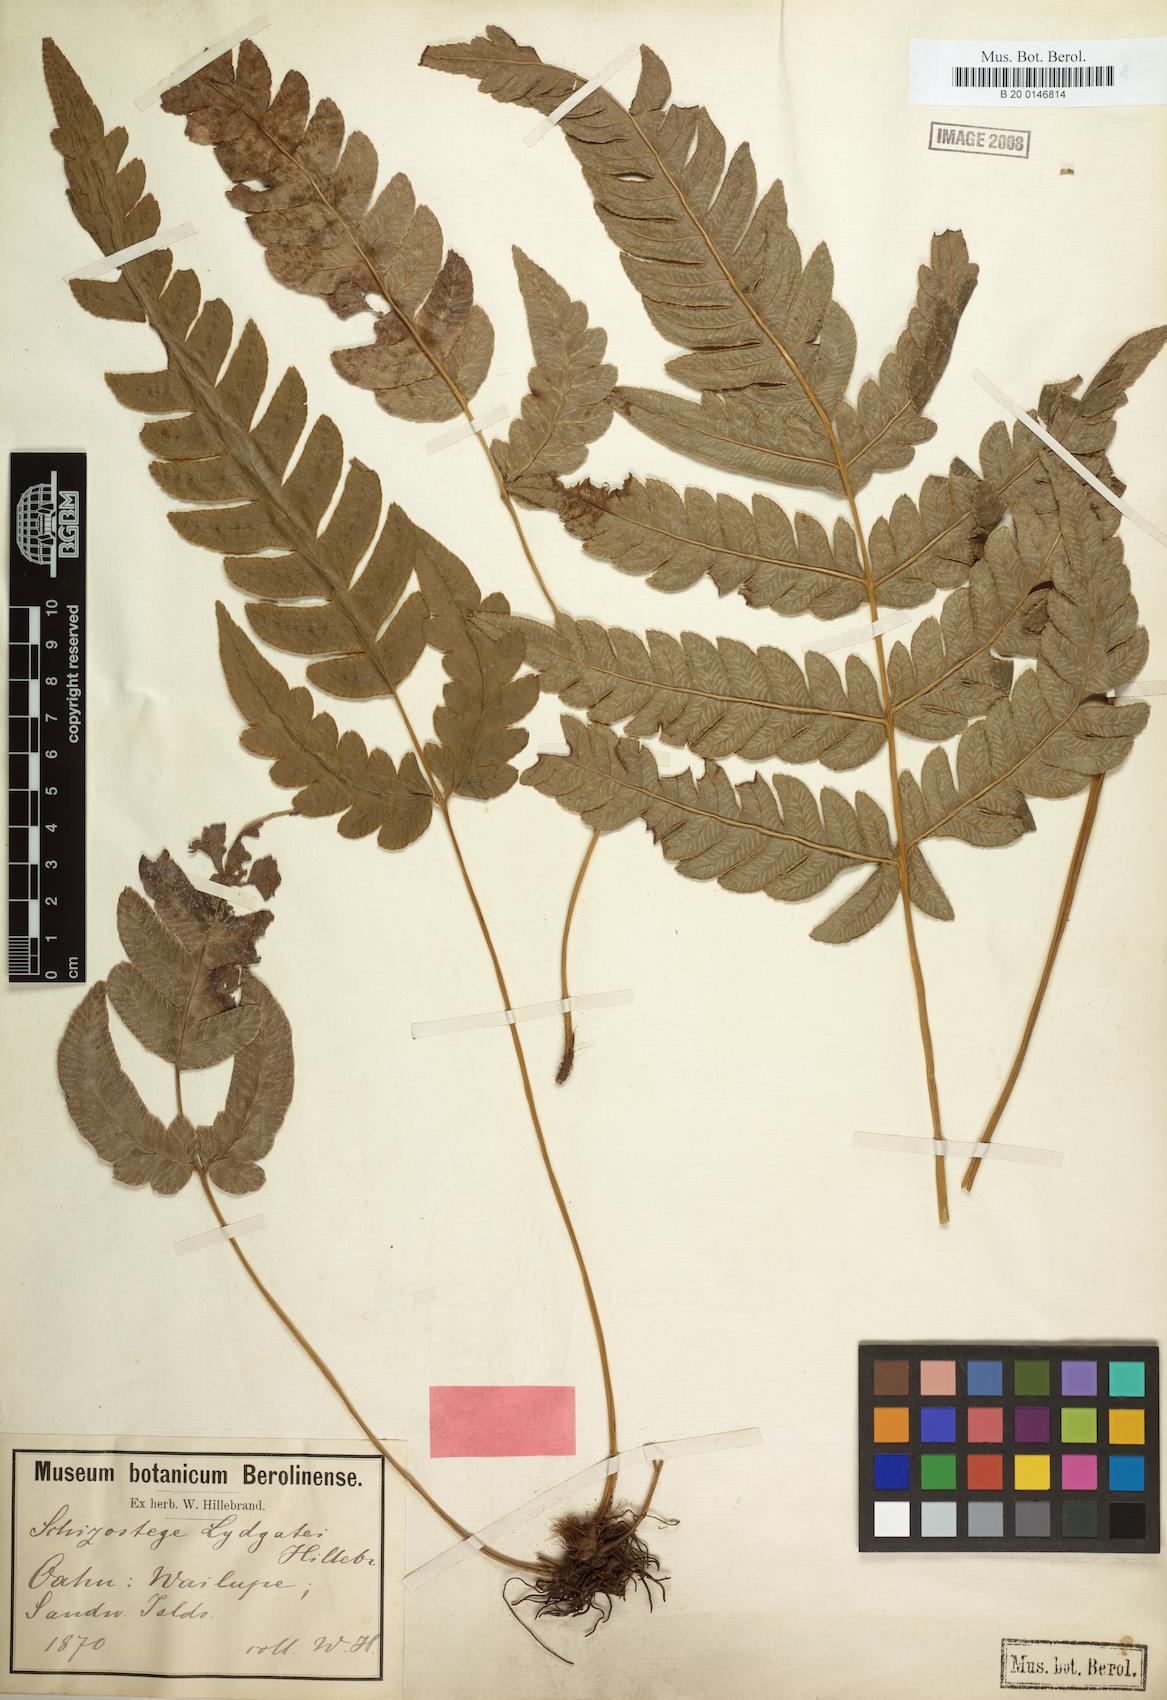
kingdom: Plantae
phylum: Tracheophyta
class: Polypodiopsida
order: Polypodiales
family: Pteridaceae
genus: Pteris
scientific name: Pteris lydgatei
